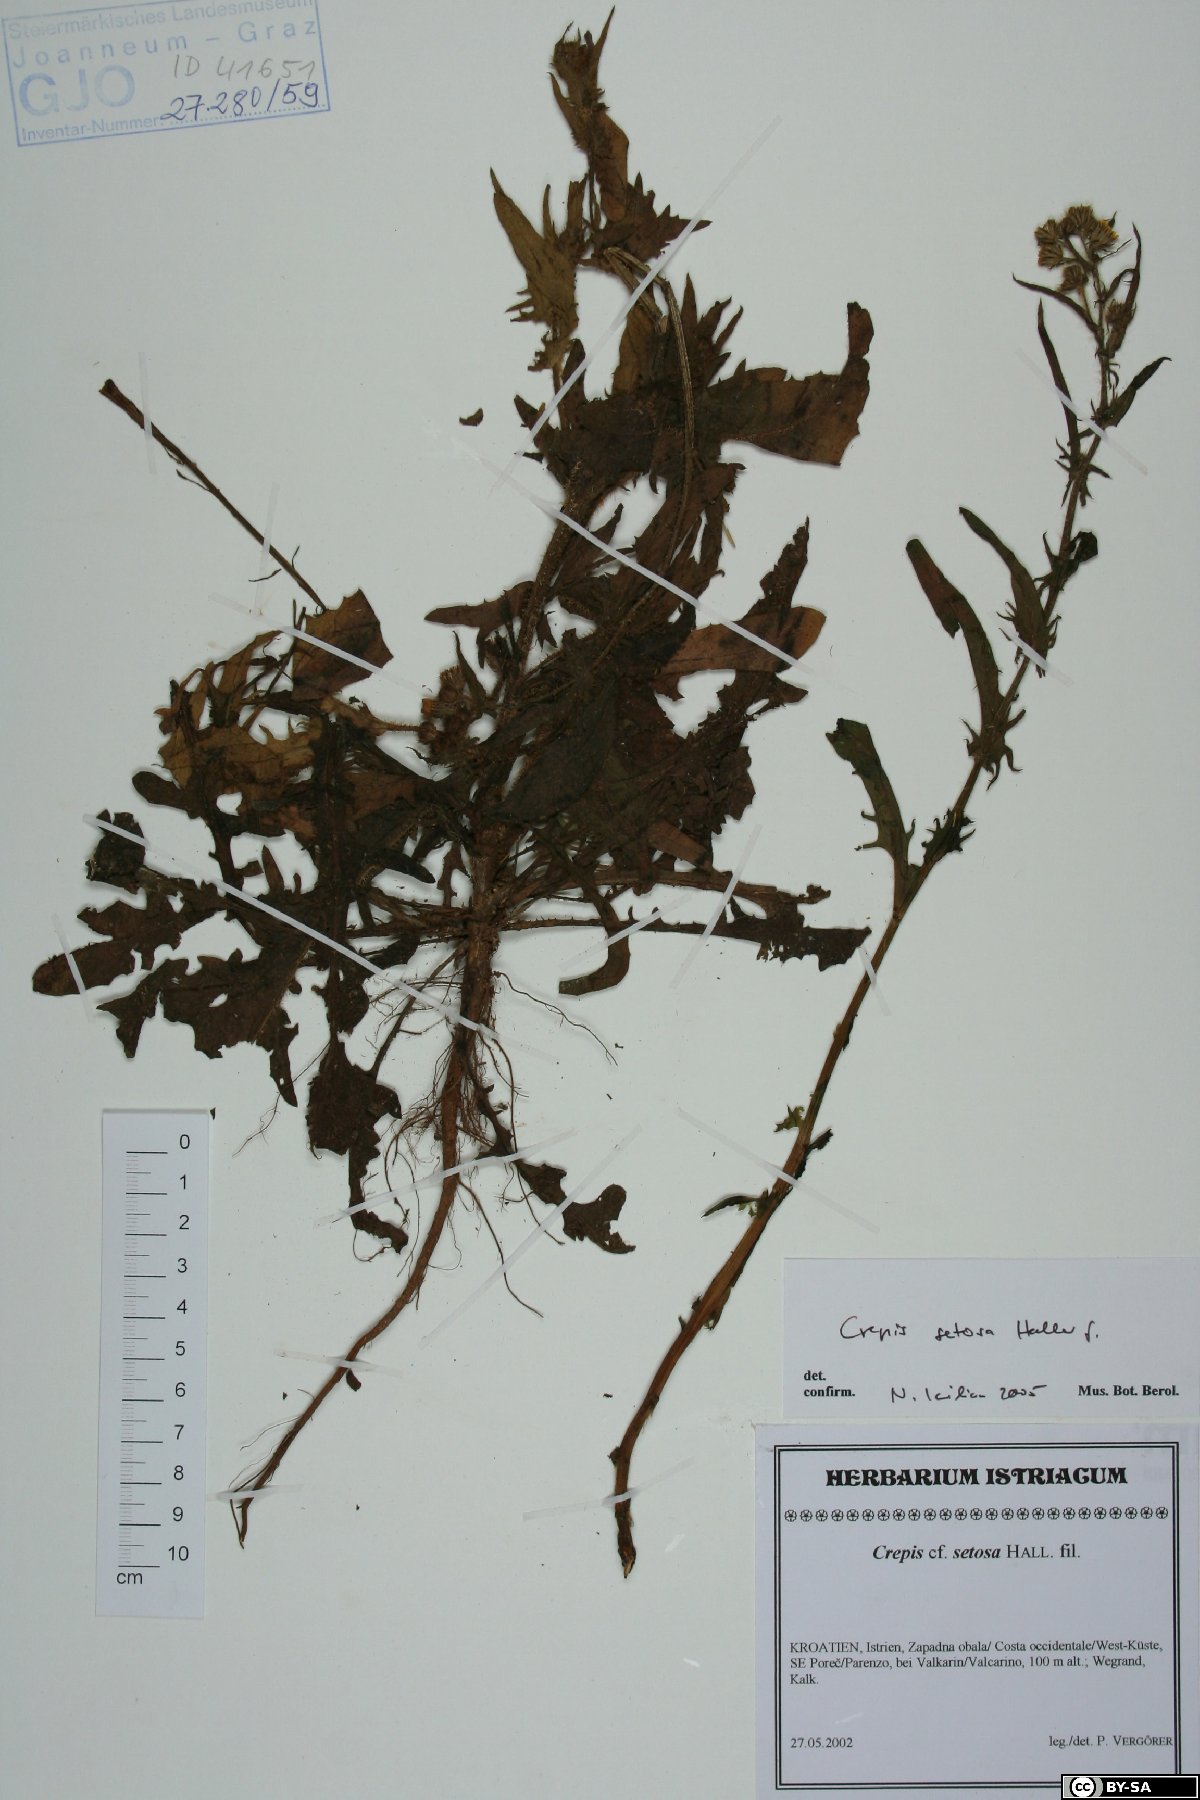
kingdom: Plantae
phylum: Tracheophyta
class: Magnoliopsida
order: Asterales
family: Asteraceae
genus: Crepis
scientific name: Crepis setosa
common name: Bristly hawk's-beard
